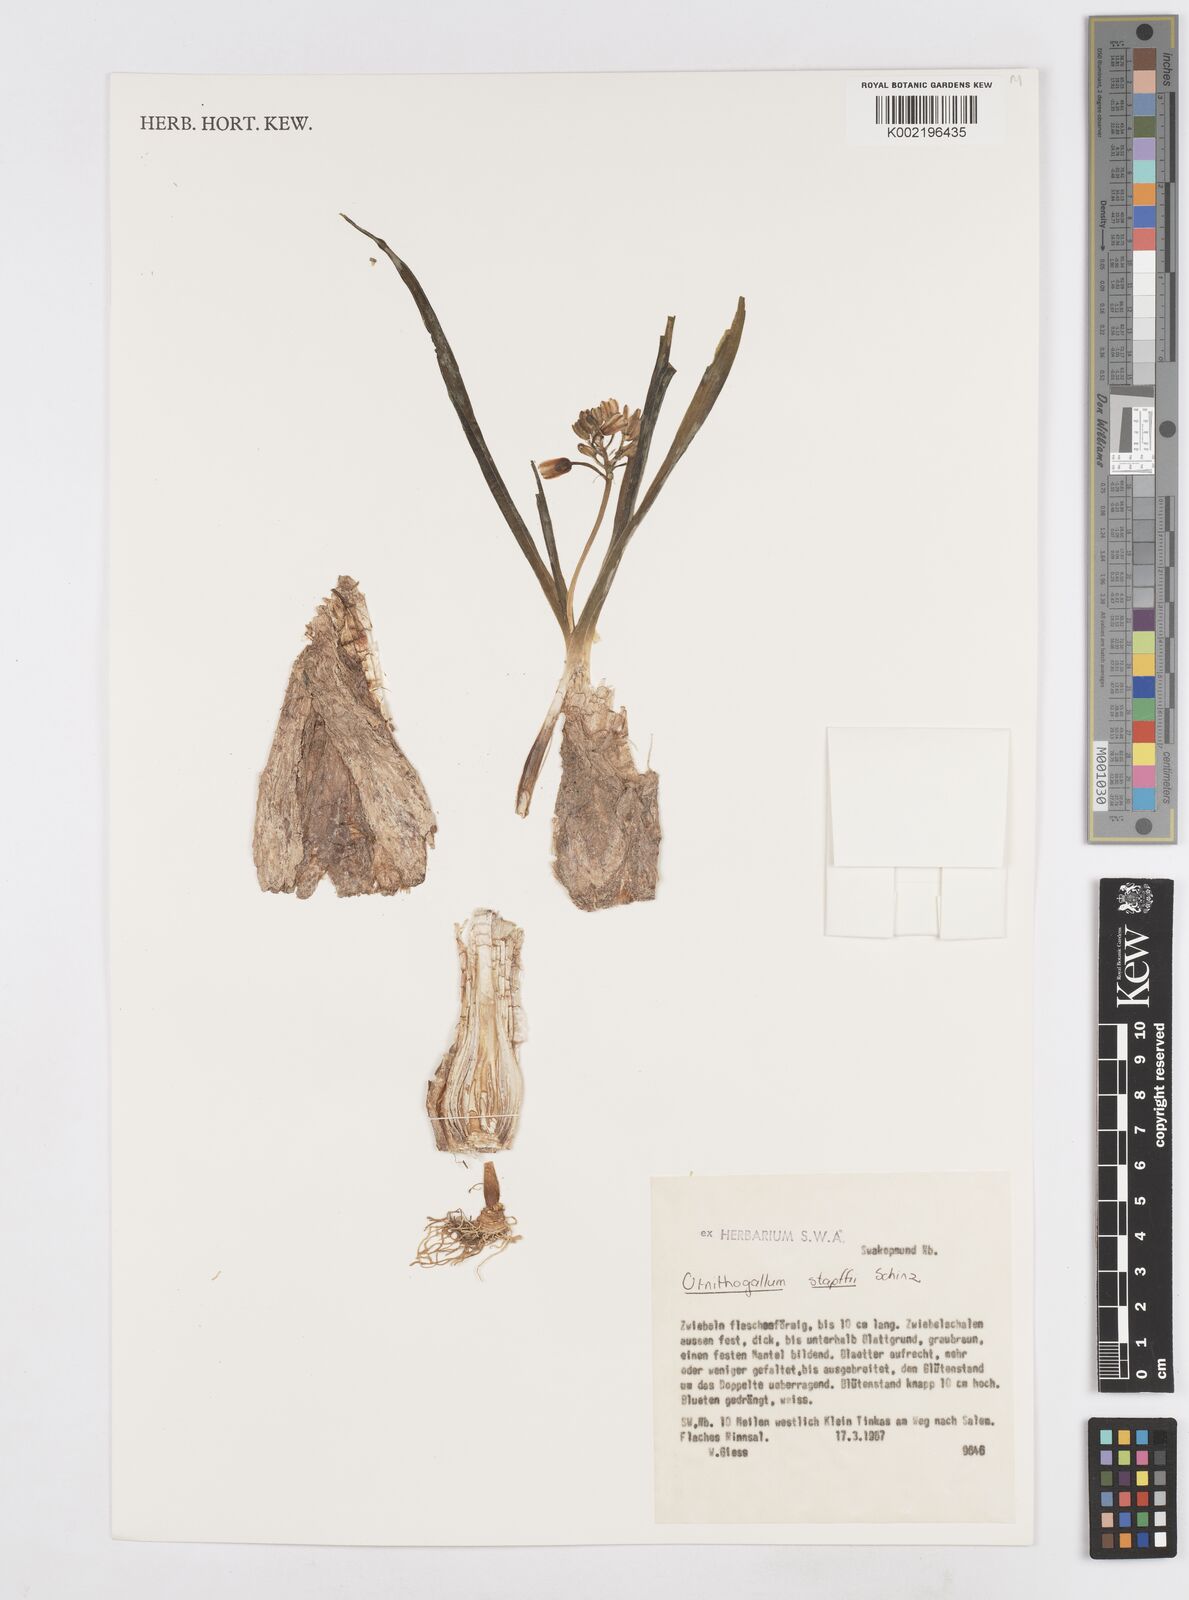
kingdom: Plantae
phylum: Tracheophyta
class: Liliopsida
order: Asparagales
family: Asparagaceae
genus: Albuca
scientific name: Albuca stapffii
